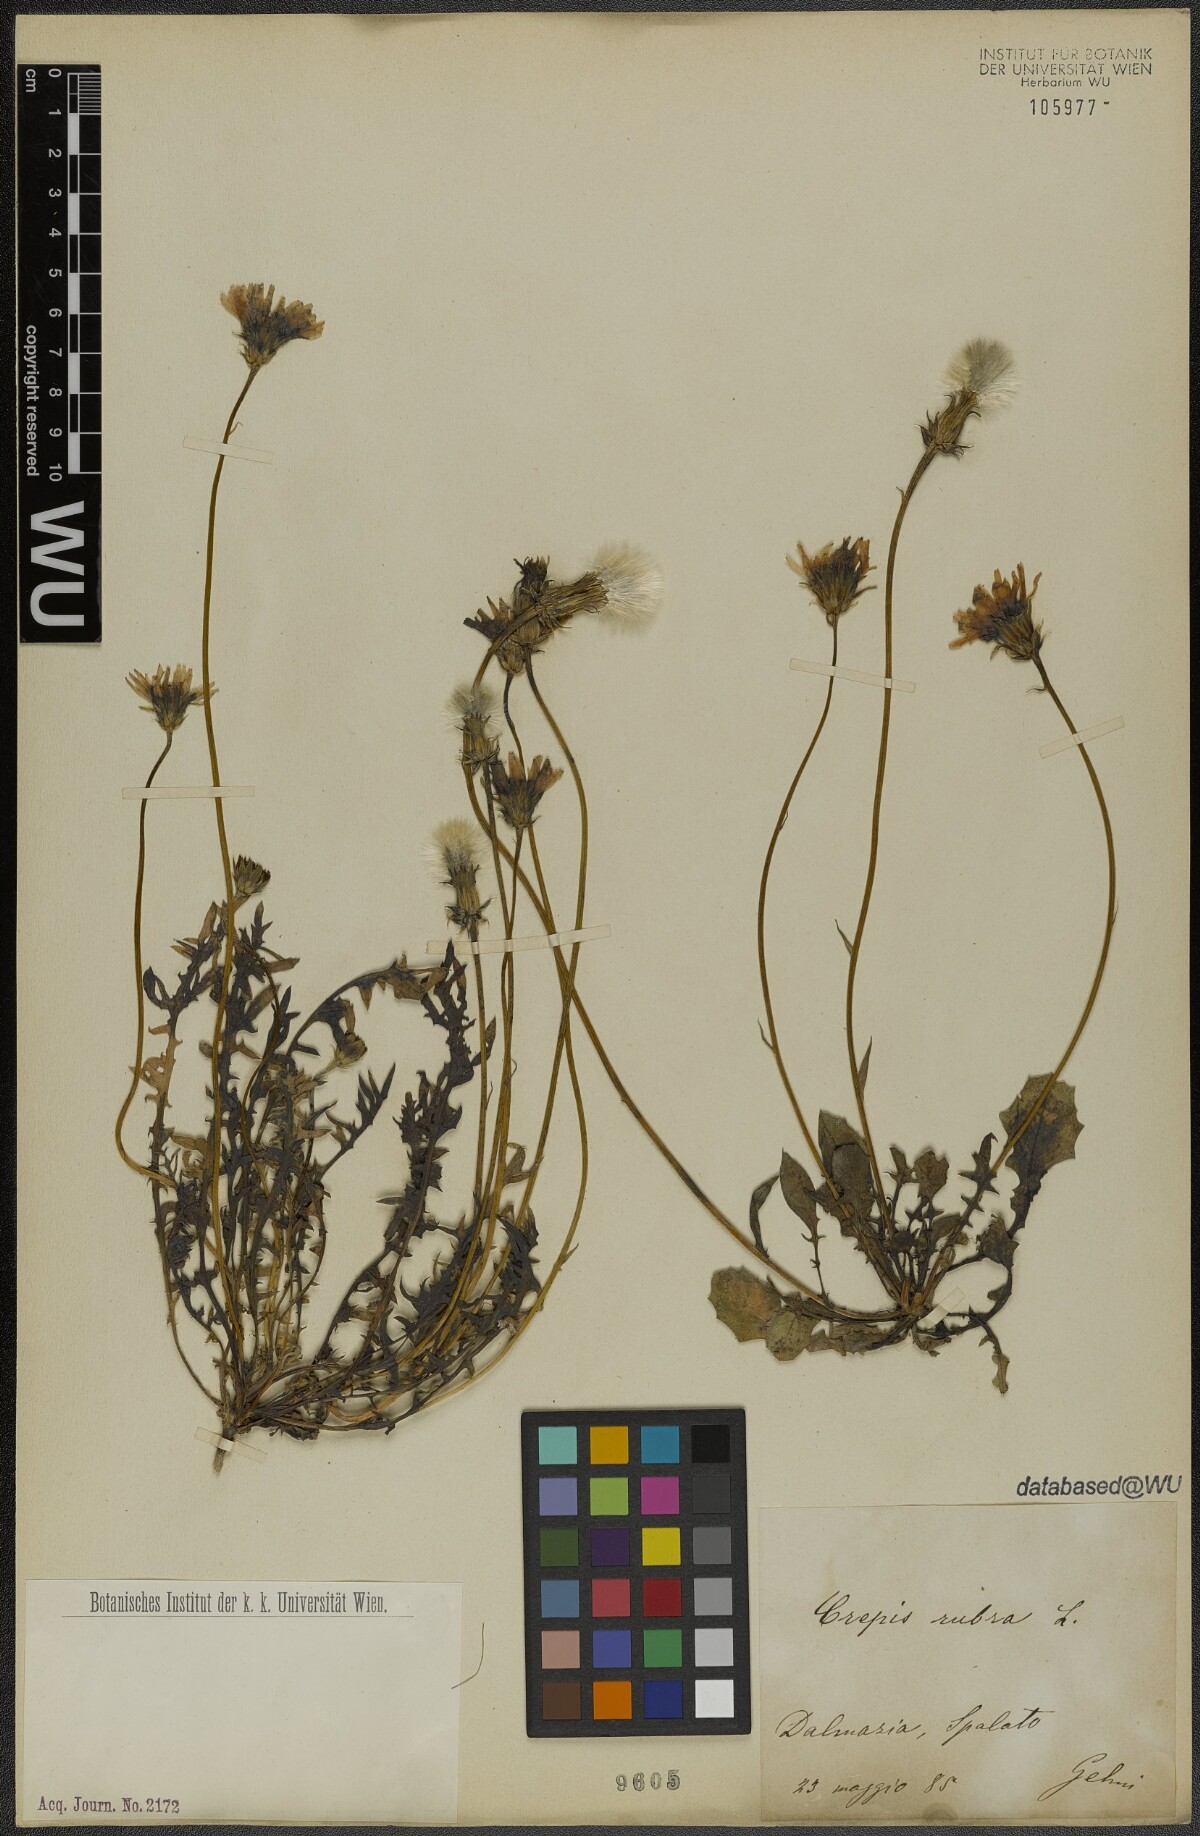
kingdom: Plantae
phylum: Tracheophyta
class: Magnoliopsida
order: Asterales
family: Asteraceae
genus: Crepis
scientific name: Crepis rubra
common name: Pink hawk's-beard
